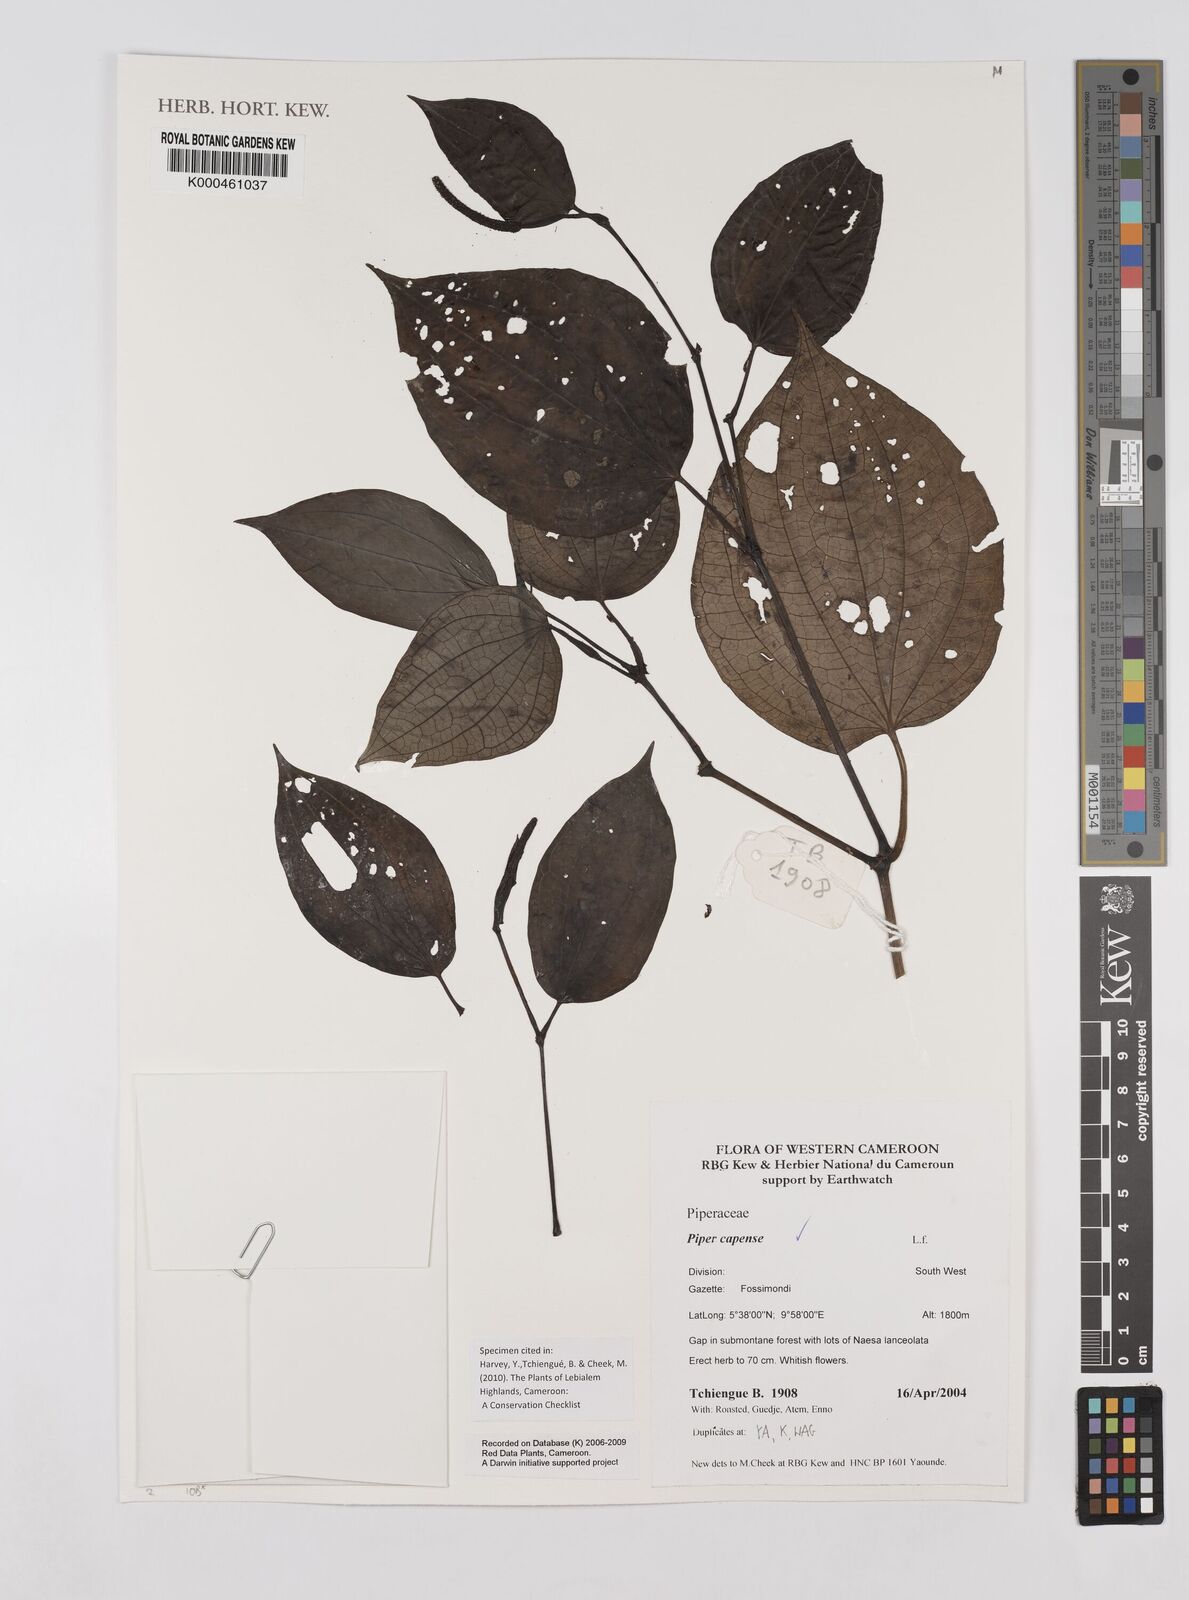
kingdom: Plantae
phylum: Tracheophyta
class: Magnoliopsida
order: Piperales
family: Piperaceae
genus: Piper
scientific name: Piper capense
